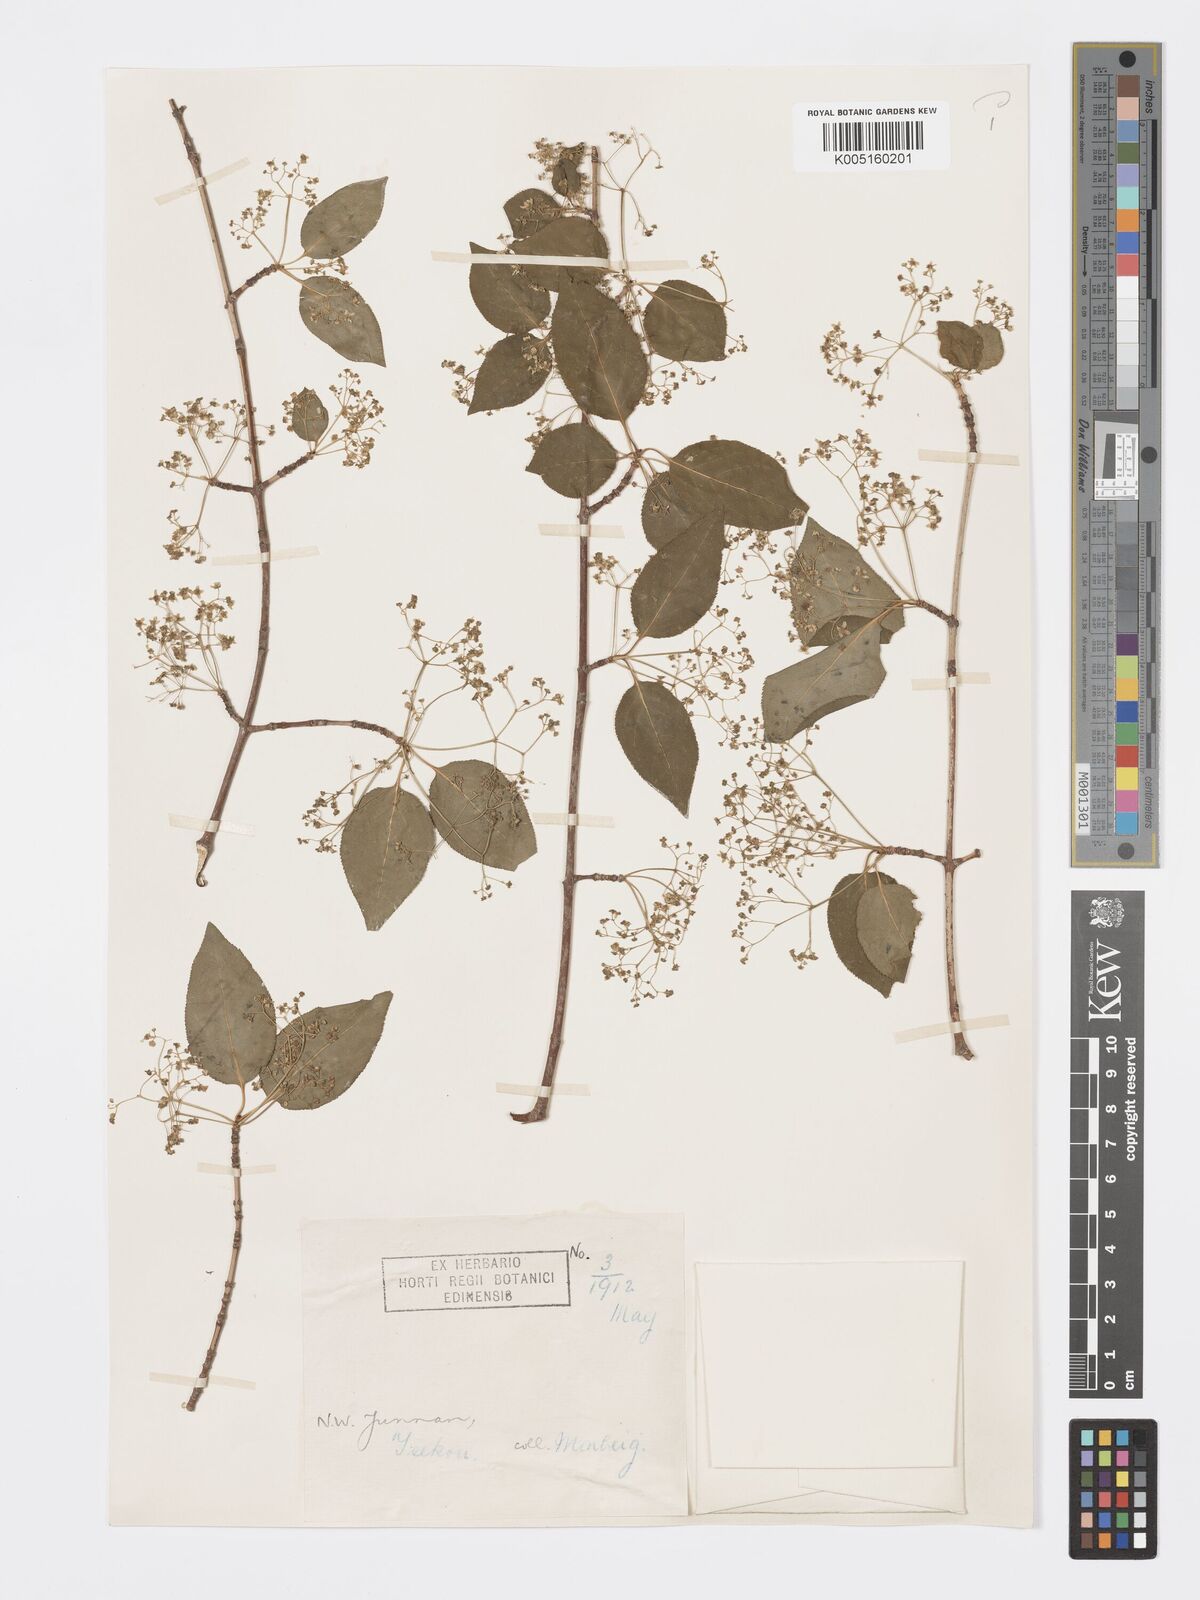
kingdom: Plantae
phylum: Tracheophyta
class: Magnoliopsida
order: Celastrales
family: Celastraceae
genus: Euonymus
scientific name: Euonymus sanguineus
